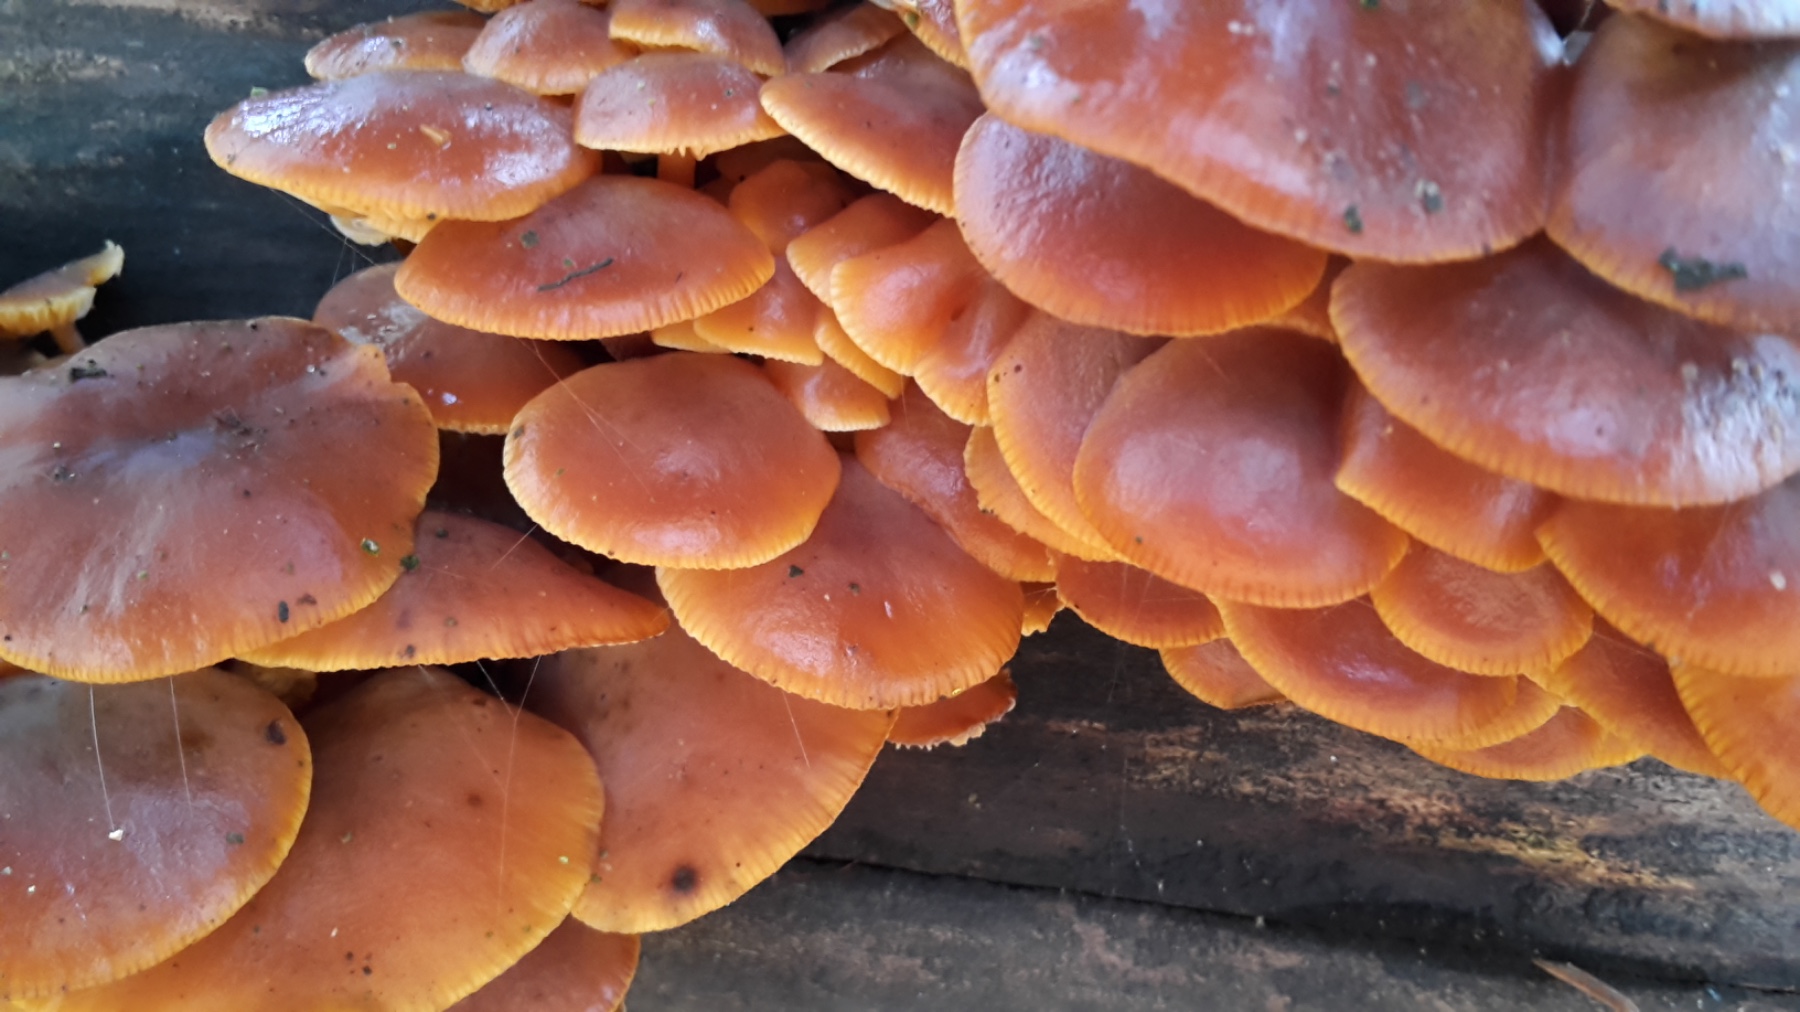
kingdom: Fungi
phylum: Basidiomycota
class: Agaricomycetes
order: Agaricales
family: Physalacriaceae
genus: Flammulina
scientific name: Flammulina velutipes
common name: gul fløjlsfod
